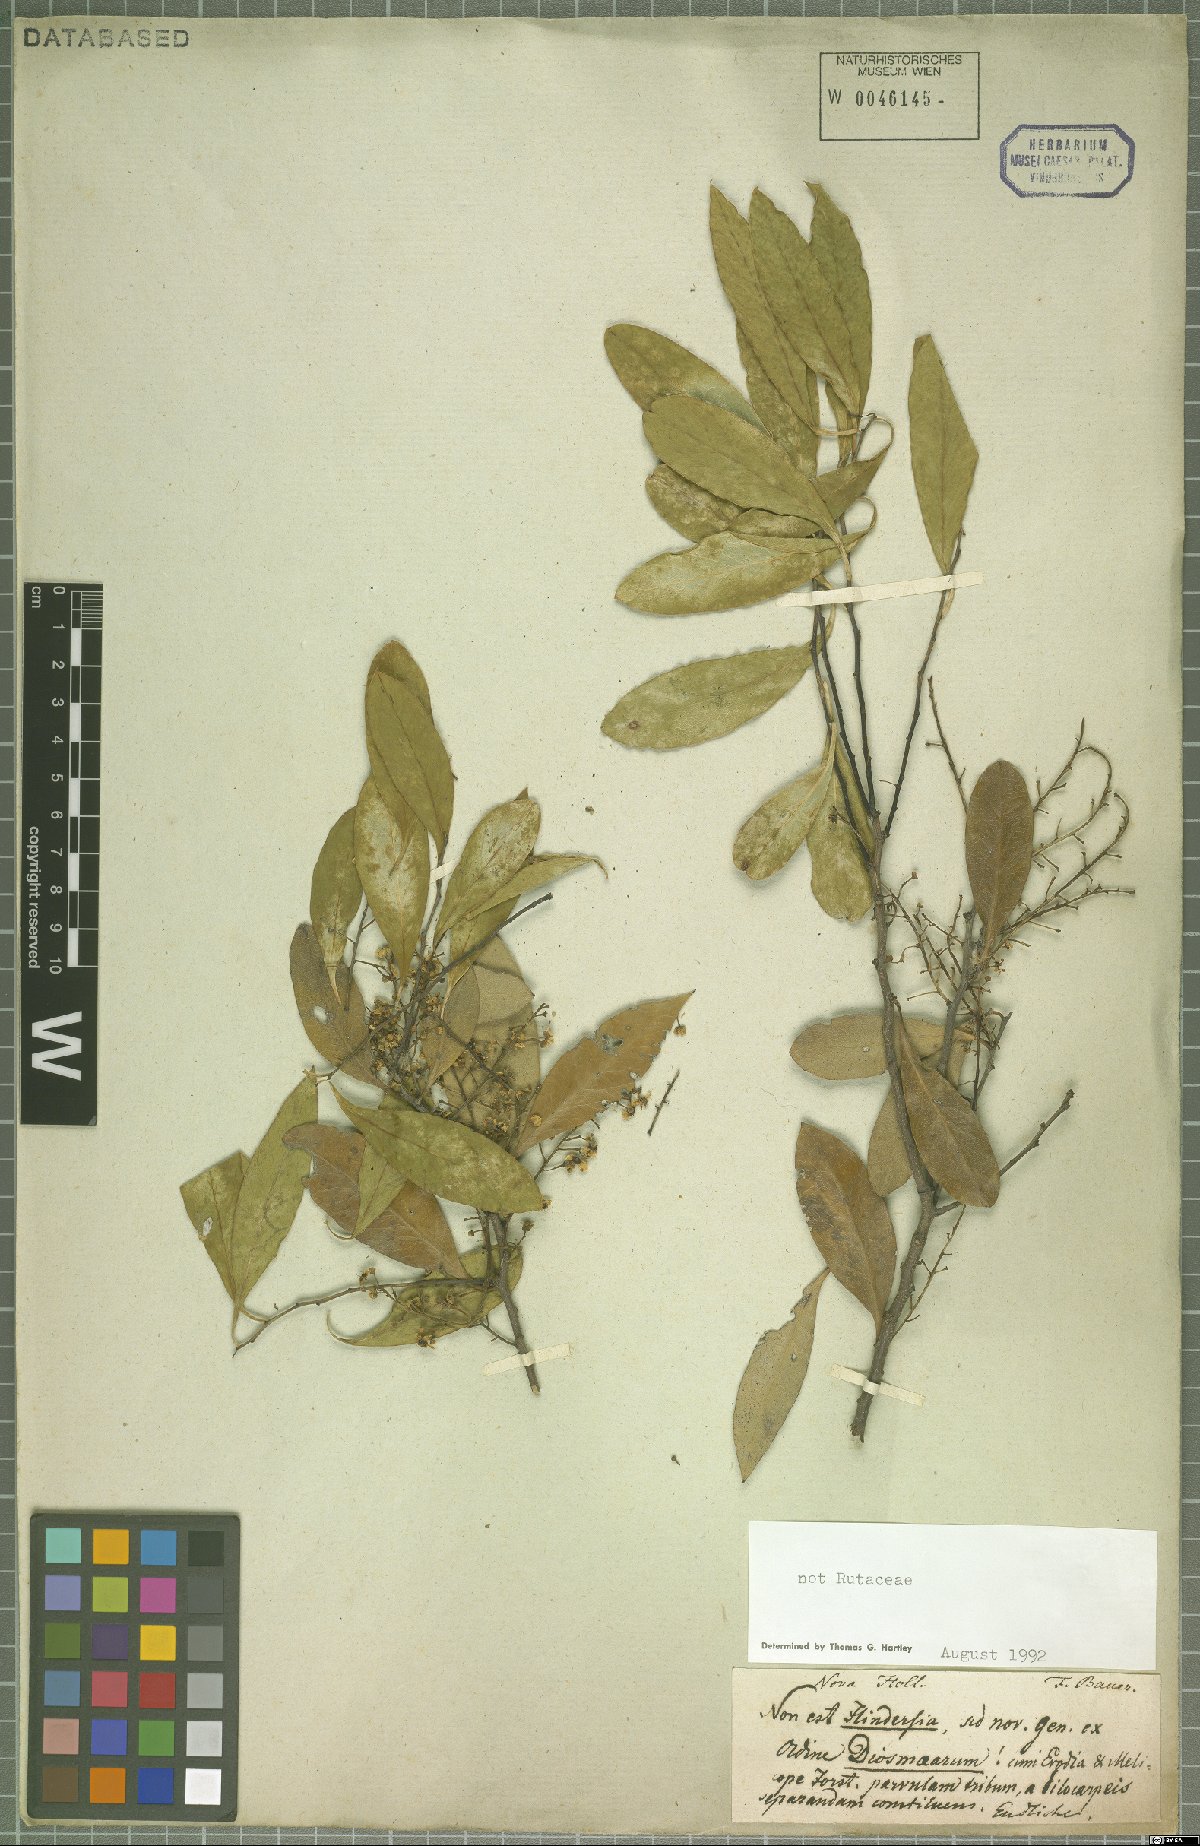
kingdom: Plantae
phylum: Tracheophyta
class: Magnoliopsida
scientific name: Magnoliopsida
